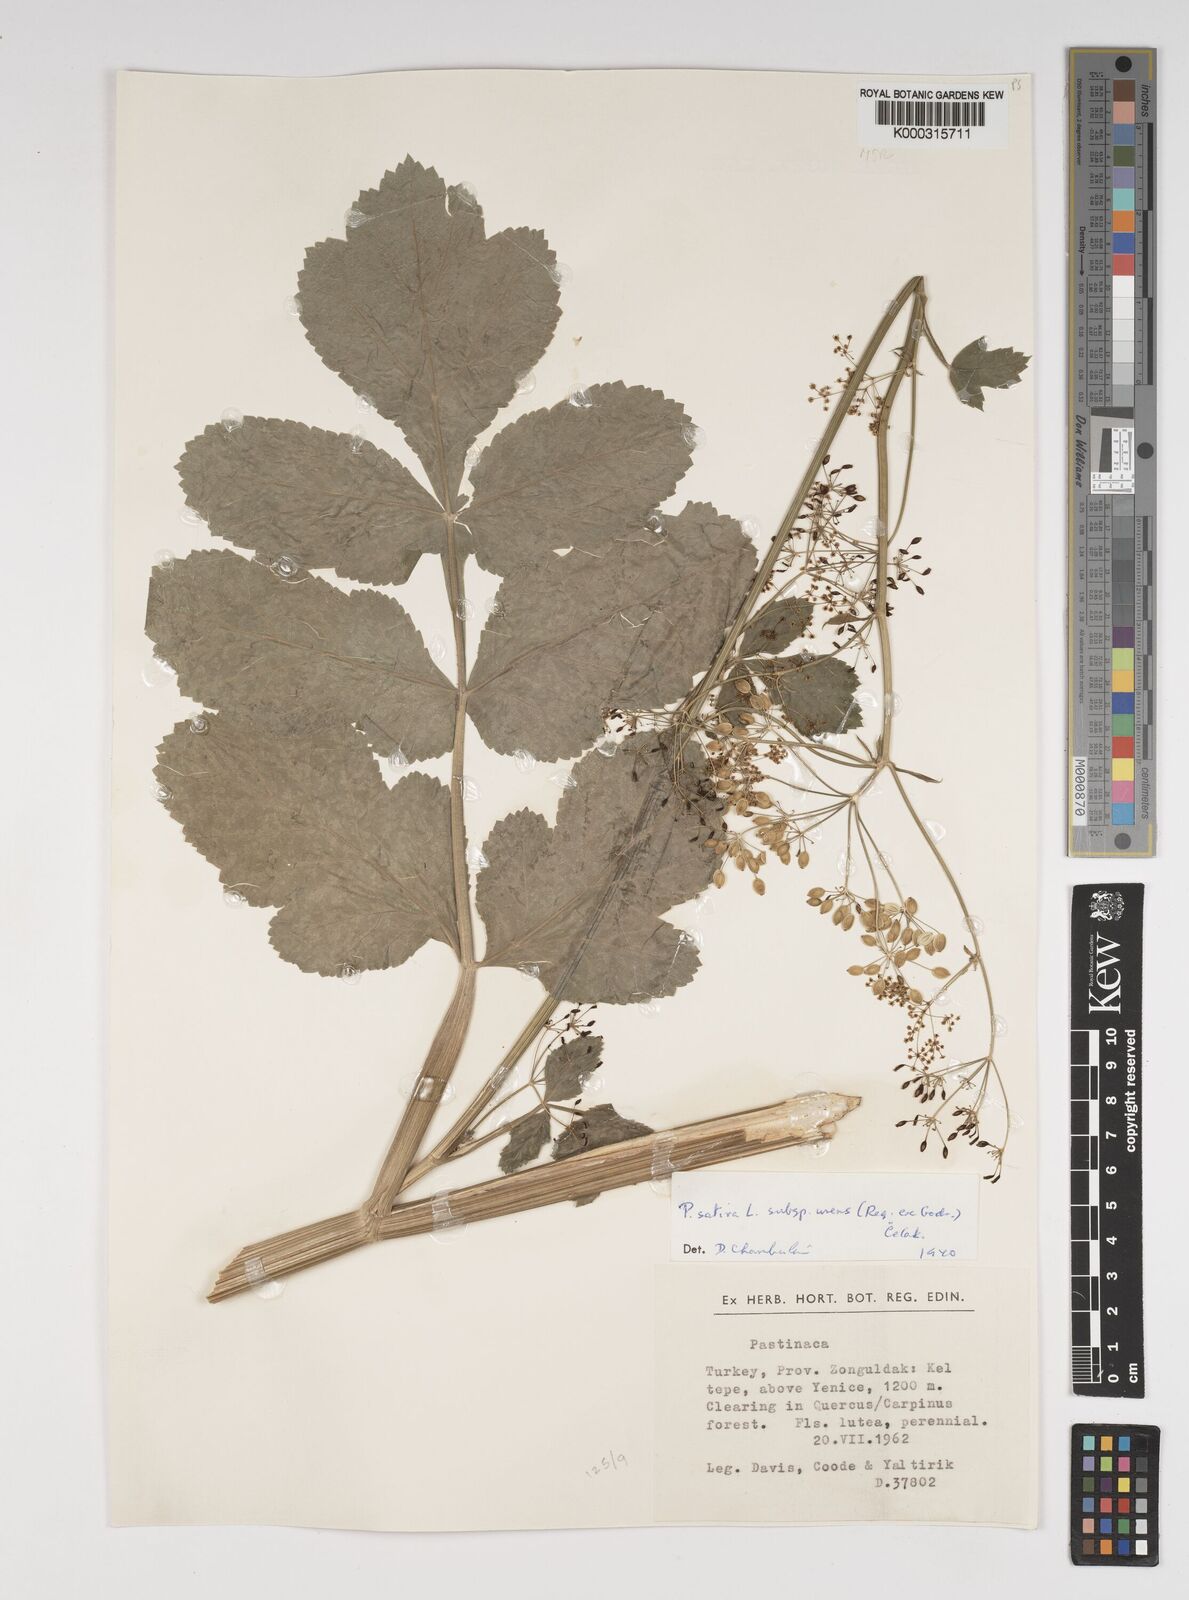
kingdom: Plantae
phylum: Tracheophyta
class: Magnoliopsida
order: Apiales
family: Apiaceae
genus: Pastinaca
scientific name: Pastinaca sativa
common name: Wild parsnip
